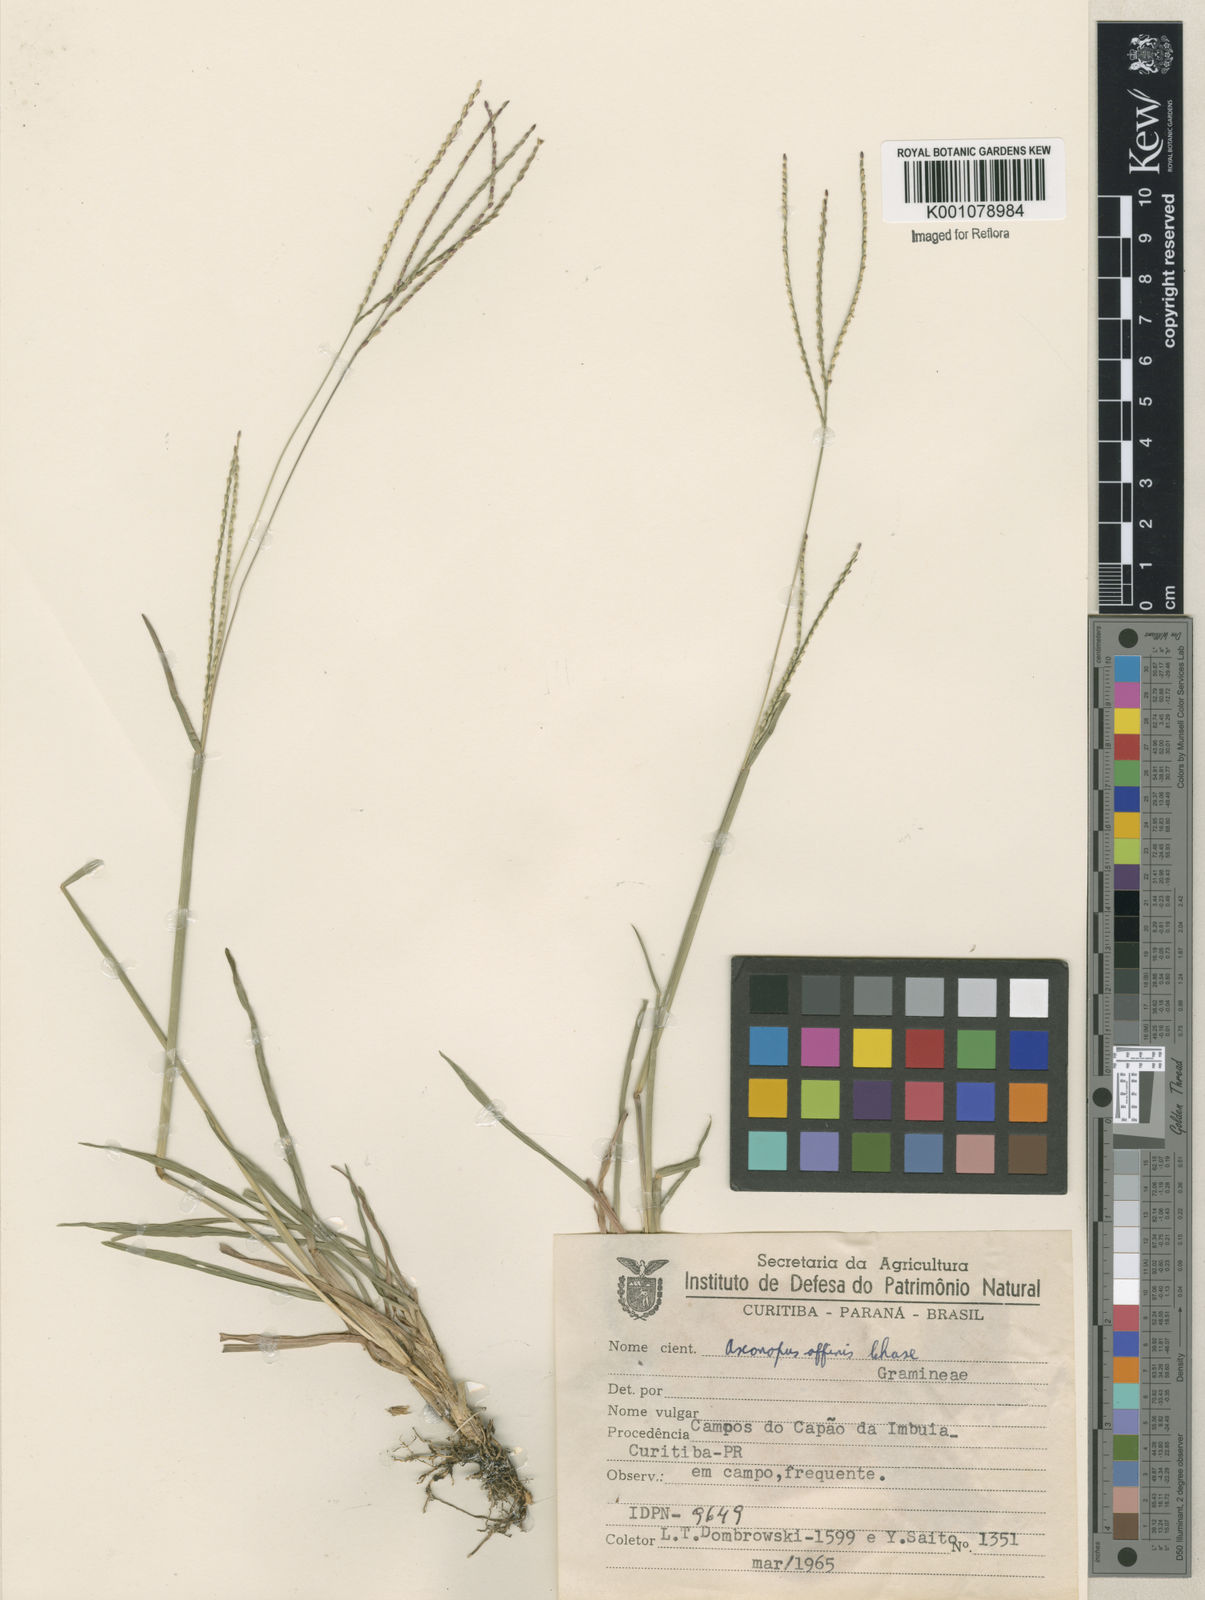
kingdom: Plantae
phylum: Tracheophyta
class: Liliopsida
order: Poales
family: Poaceae
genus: Axonopus
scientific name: Axonopus fissifolius
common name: Common carpetgrass
